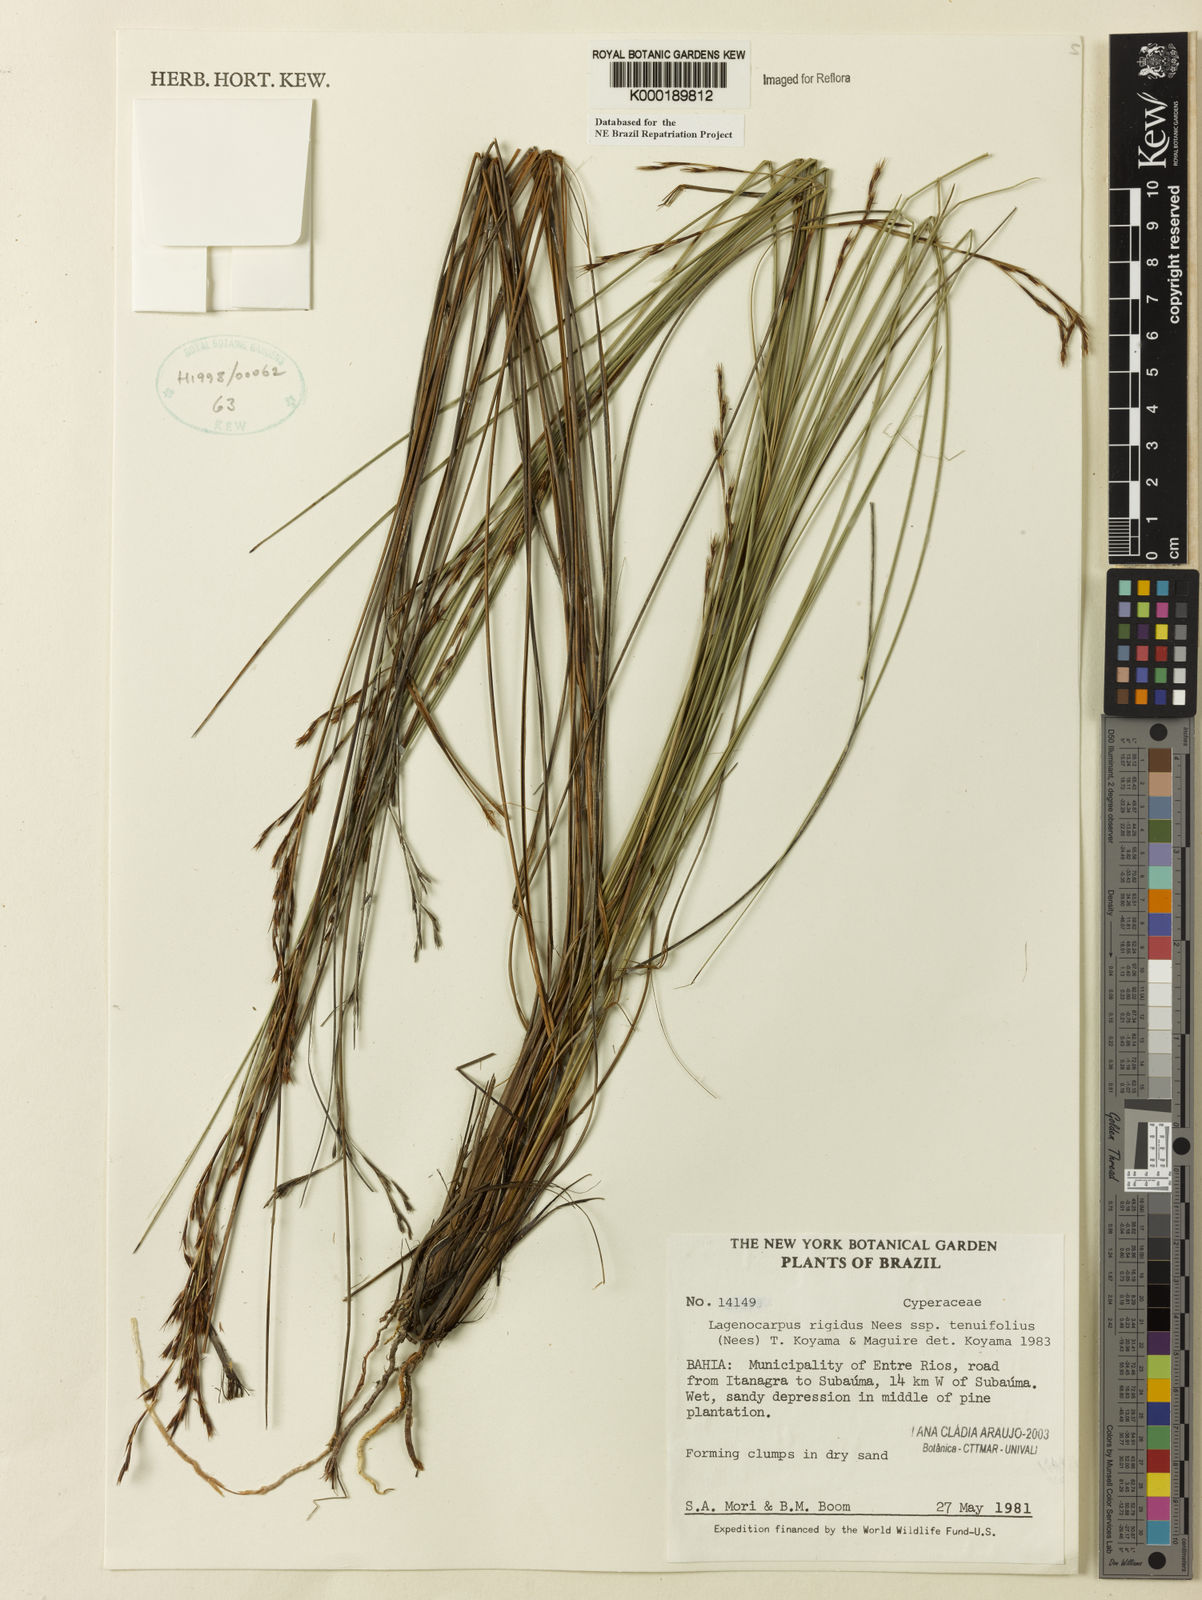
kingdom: Plantae
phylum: Tracheophyta
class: Liliopsida
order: Poales
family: Cyperaceae
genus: Lagenocarpus
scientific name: Lagenocarpus rigidus
